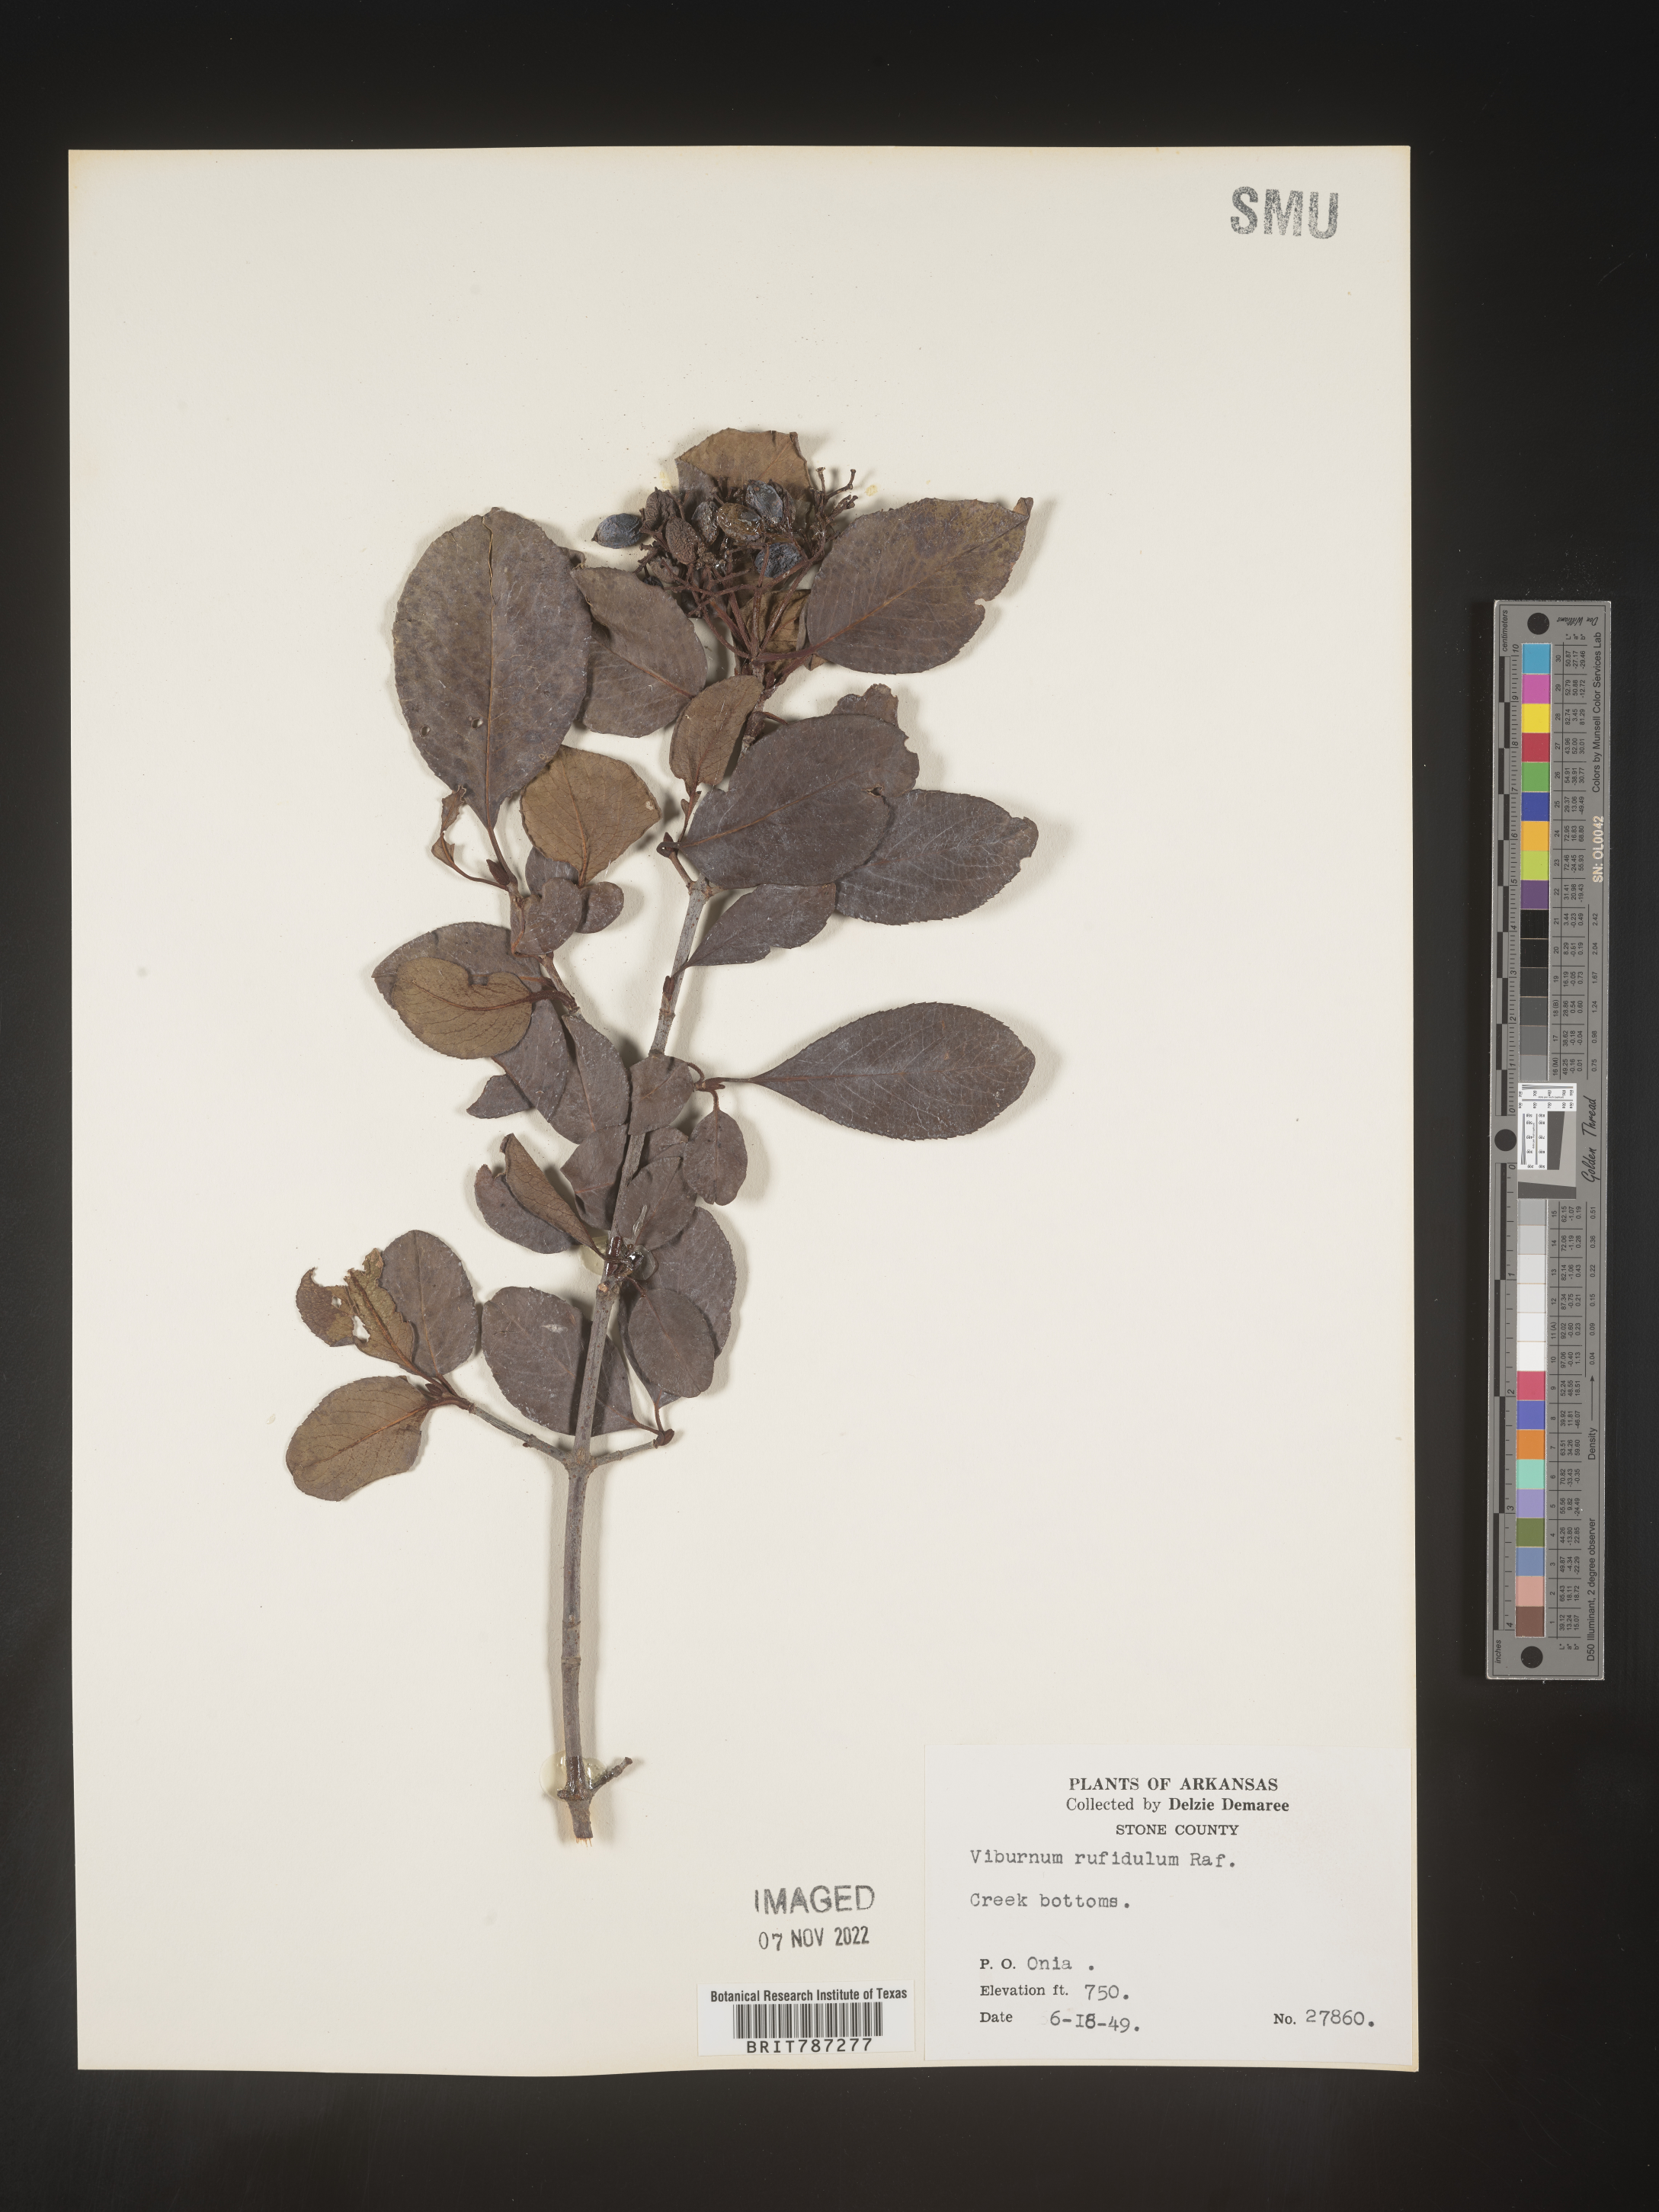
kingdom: Plantae
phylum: Tracheophyta
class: Magnoliopsida
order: Dipsacales
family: Viburnaceae
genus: Viburnum
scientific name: Viburnum rufidulum
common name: Blue haw
